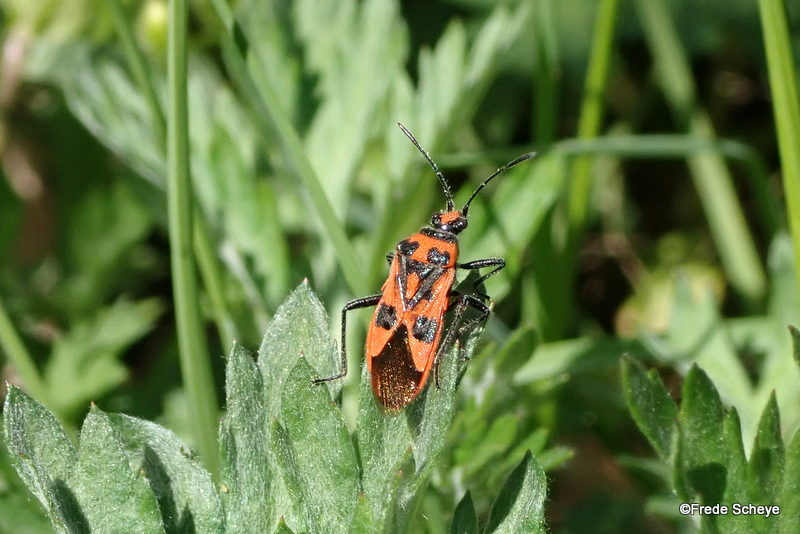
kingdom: Animalia
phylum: Arthropoda
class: Insecta
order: Hemiptera
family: Rhopalidae
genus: Corizus
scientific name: Corizus hyoscyami
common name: Rød kanttæge
